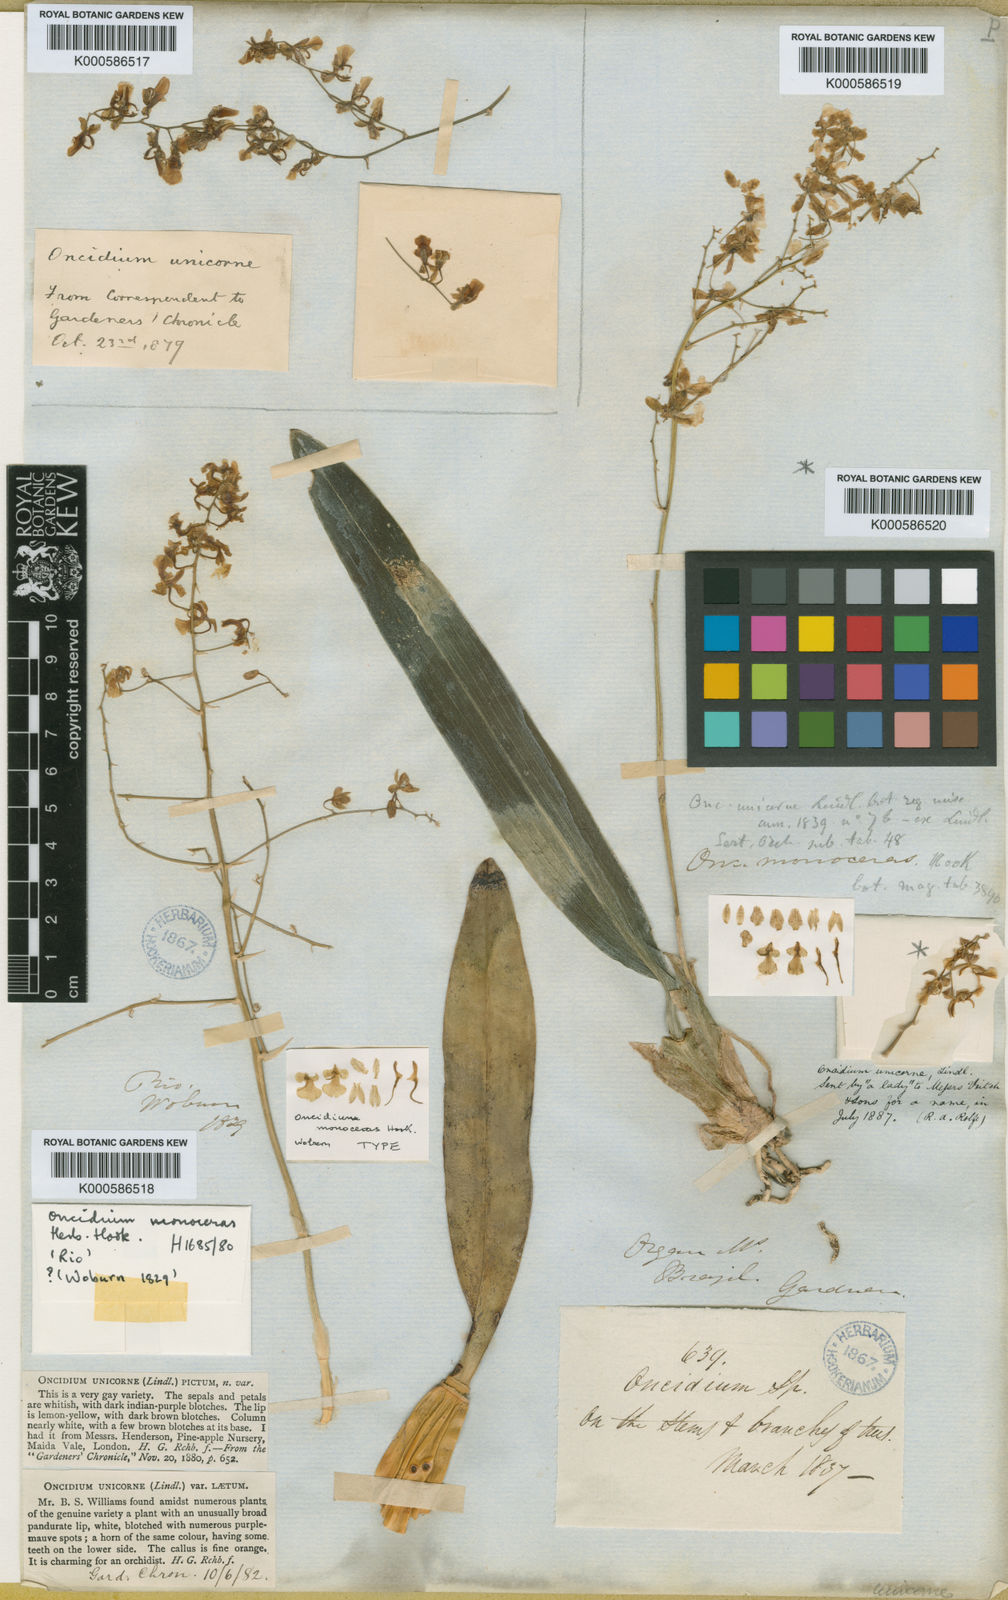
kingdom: Plantae
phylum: Tracheophyta
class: Liliopsida
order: Asparagales
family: Orchidaceae
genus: Gomesa
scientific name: Gomesa florida
